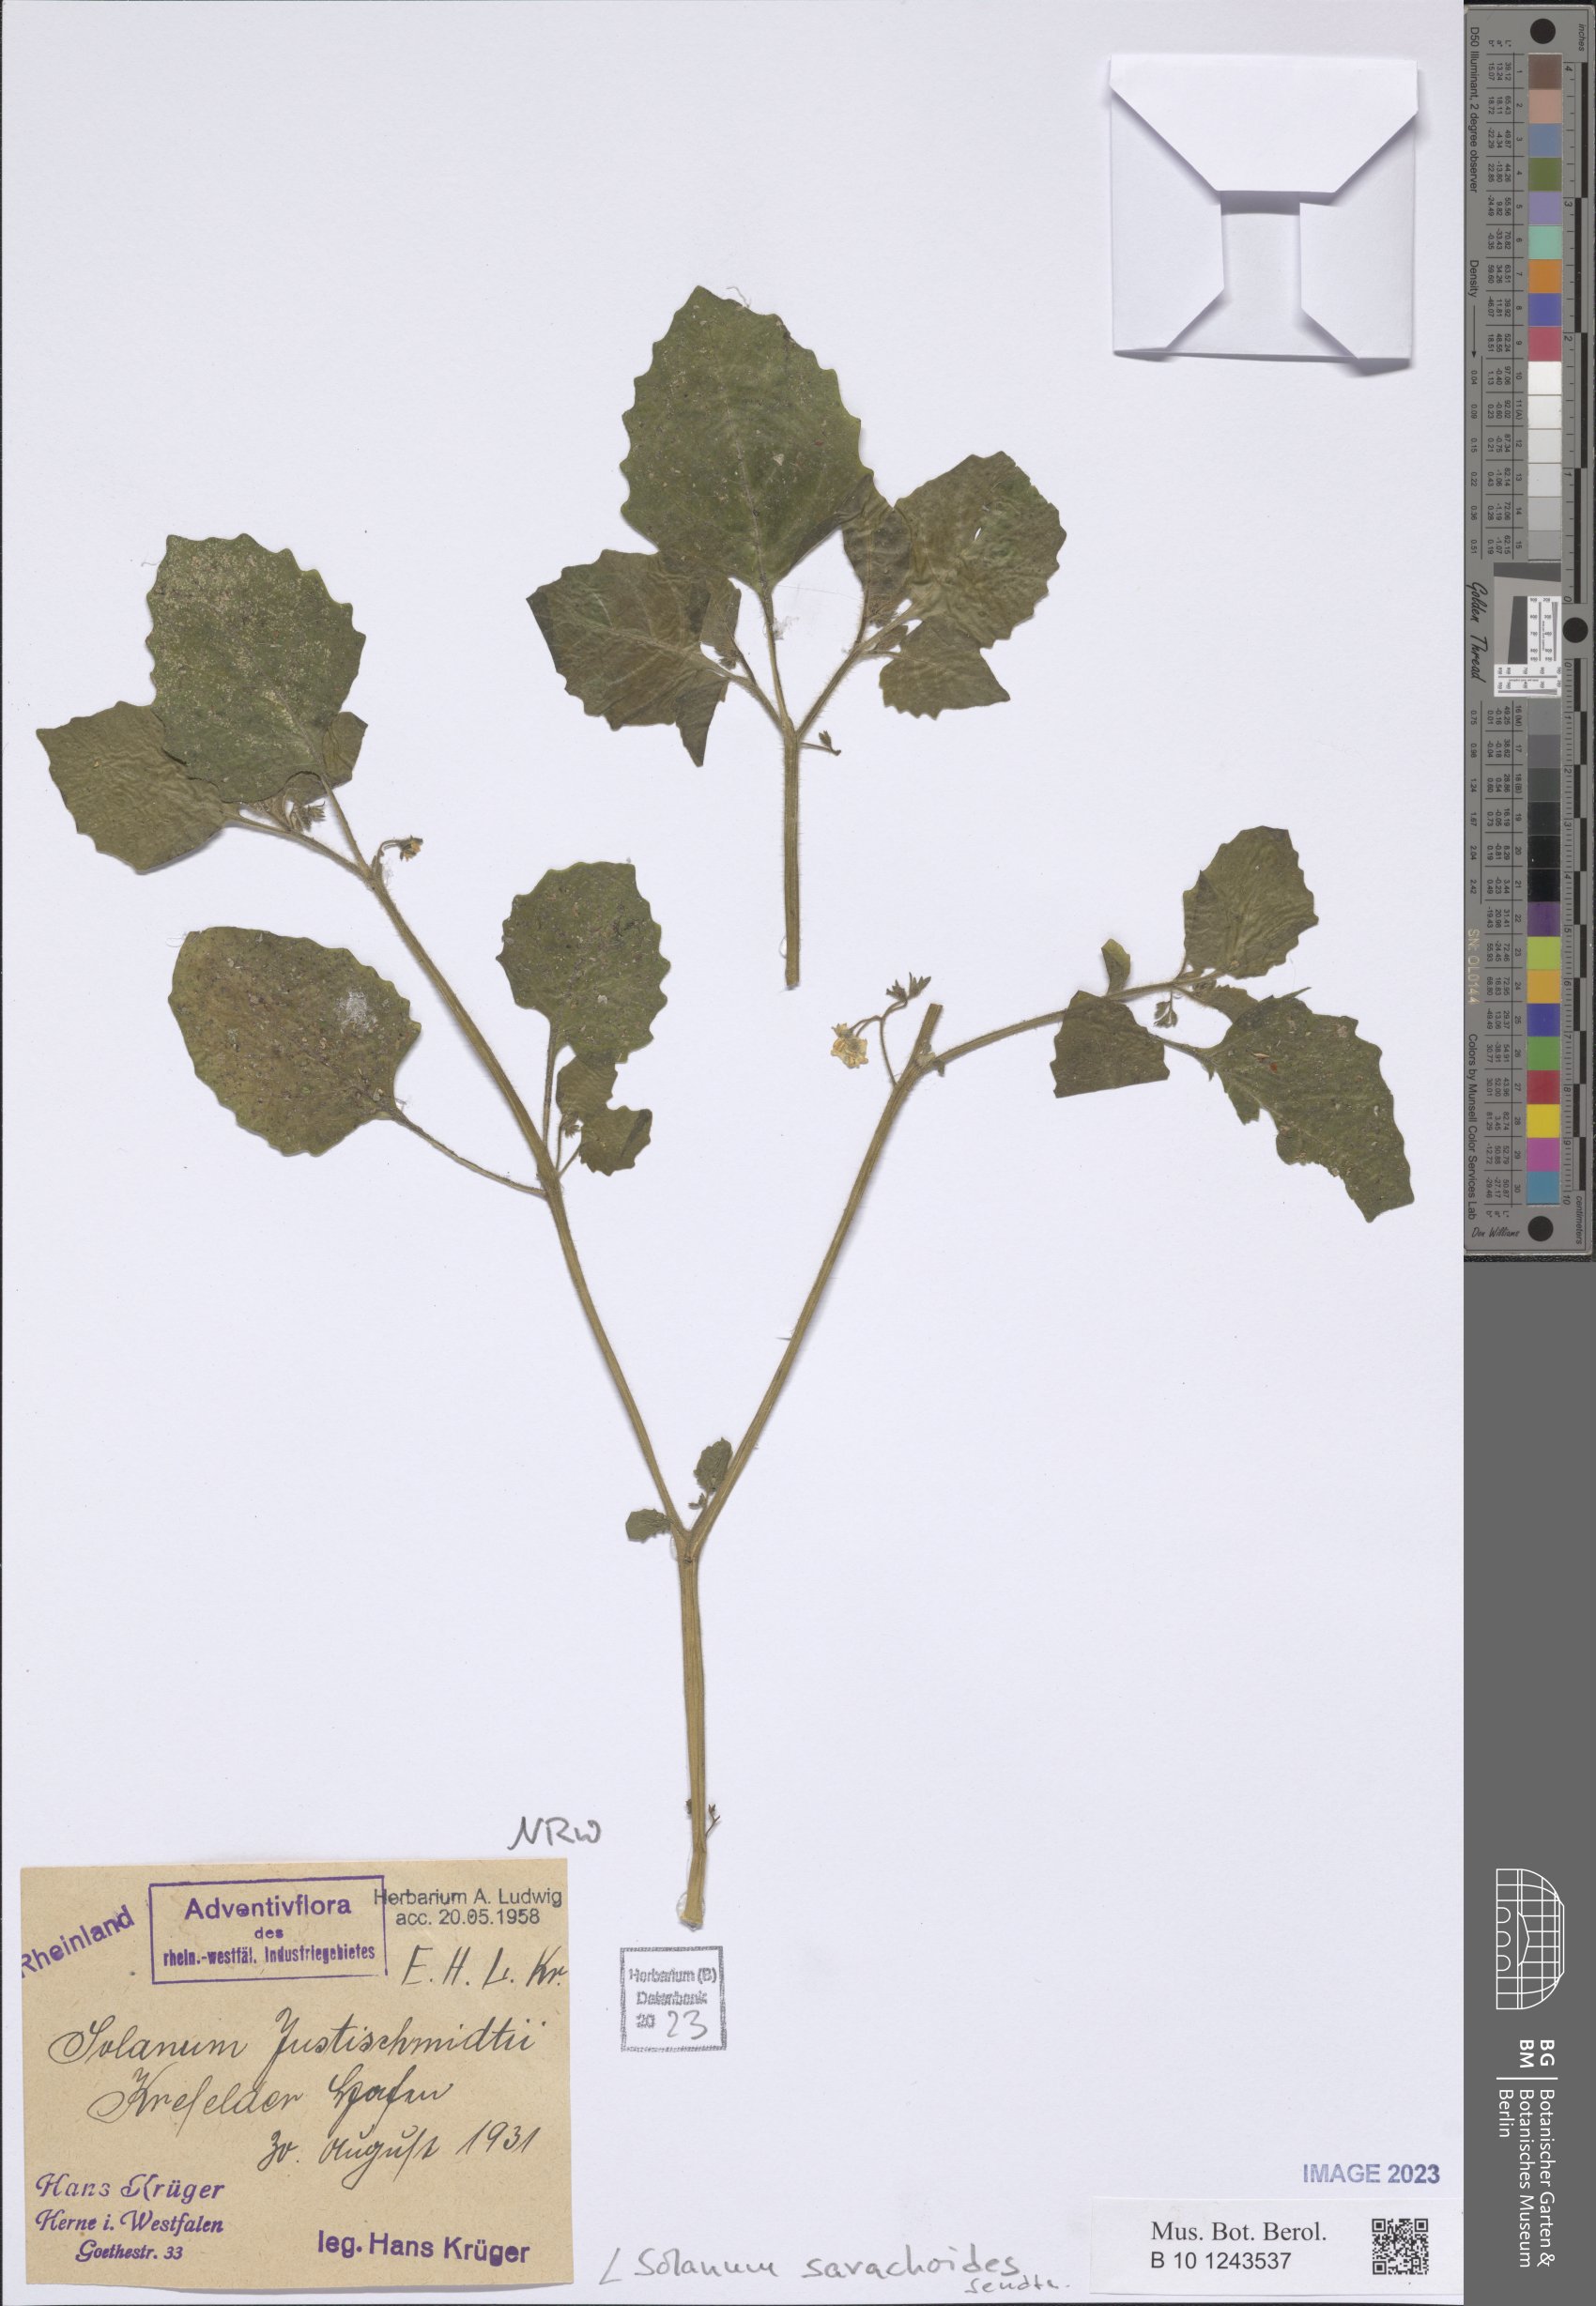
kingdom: Plantae
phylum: Tracheophyta
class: Magnoliopsida
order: Solanales
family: Solanaceae
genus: Solanum
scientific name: Solanum sarrachoides
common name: Leafy-fruited nightshade
